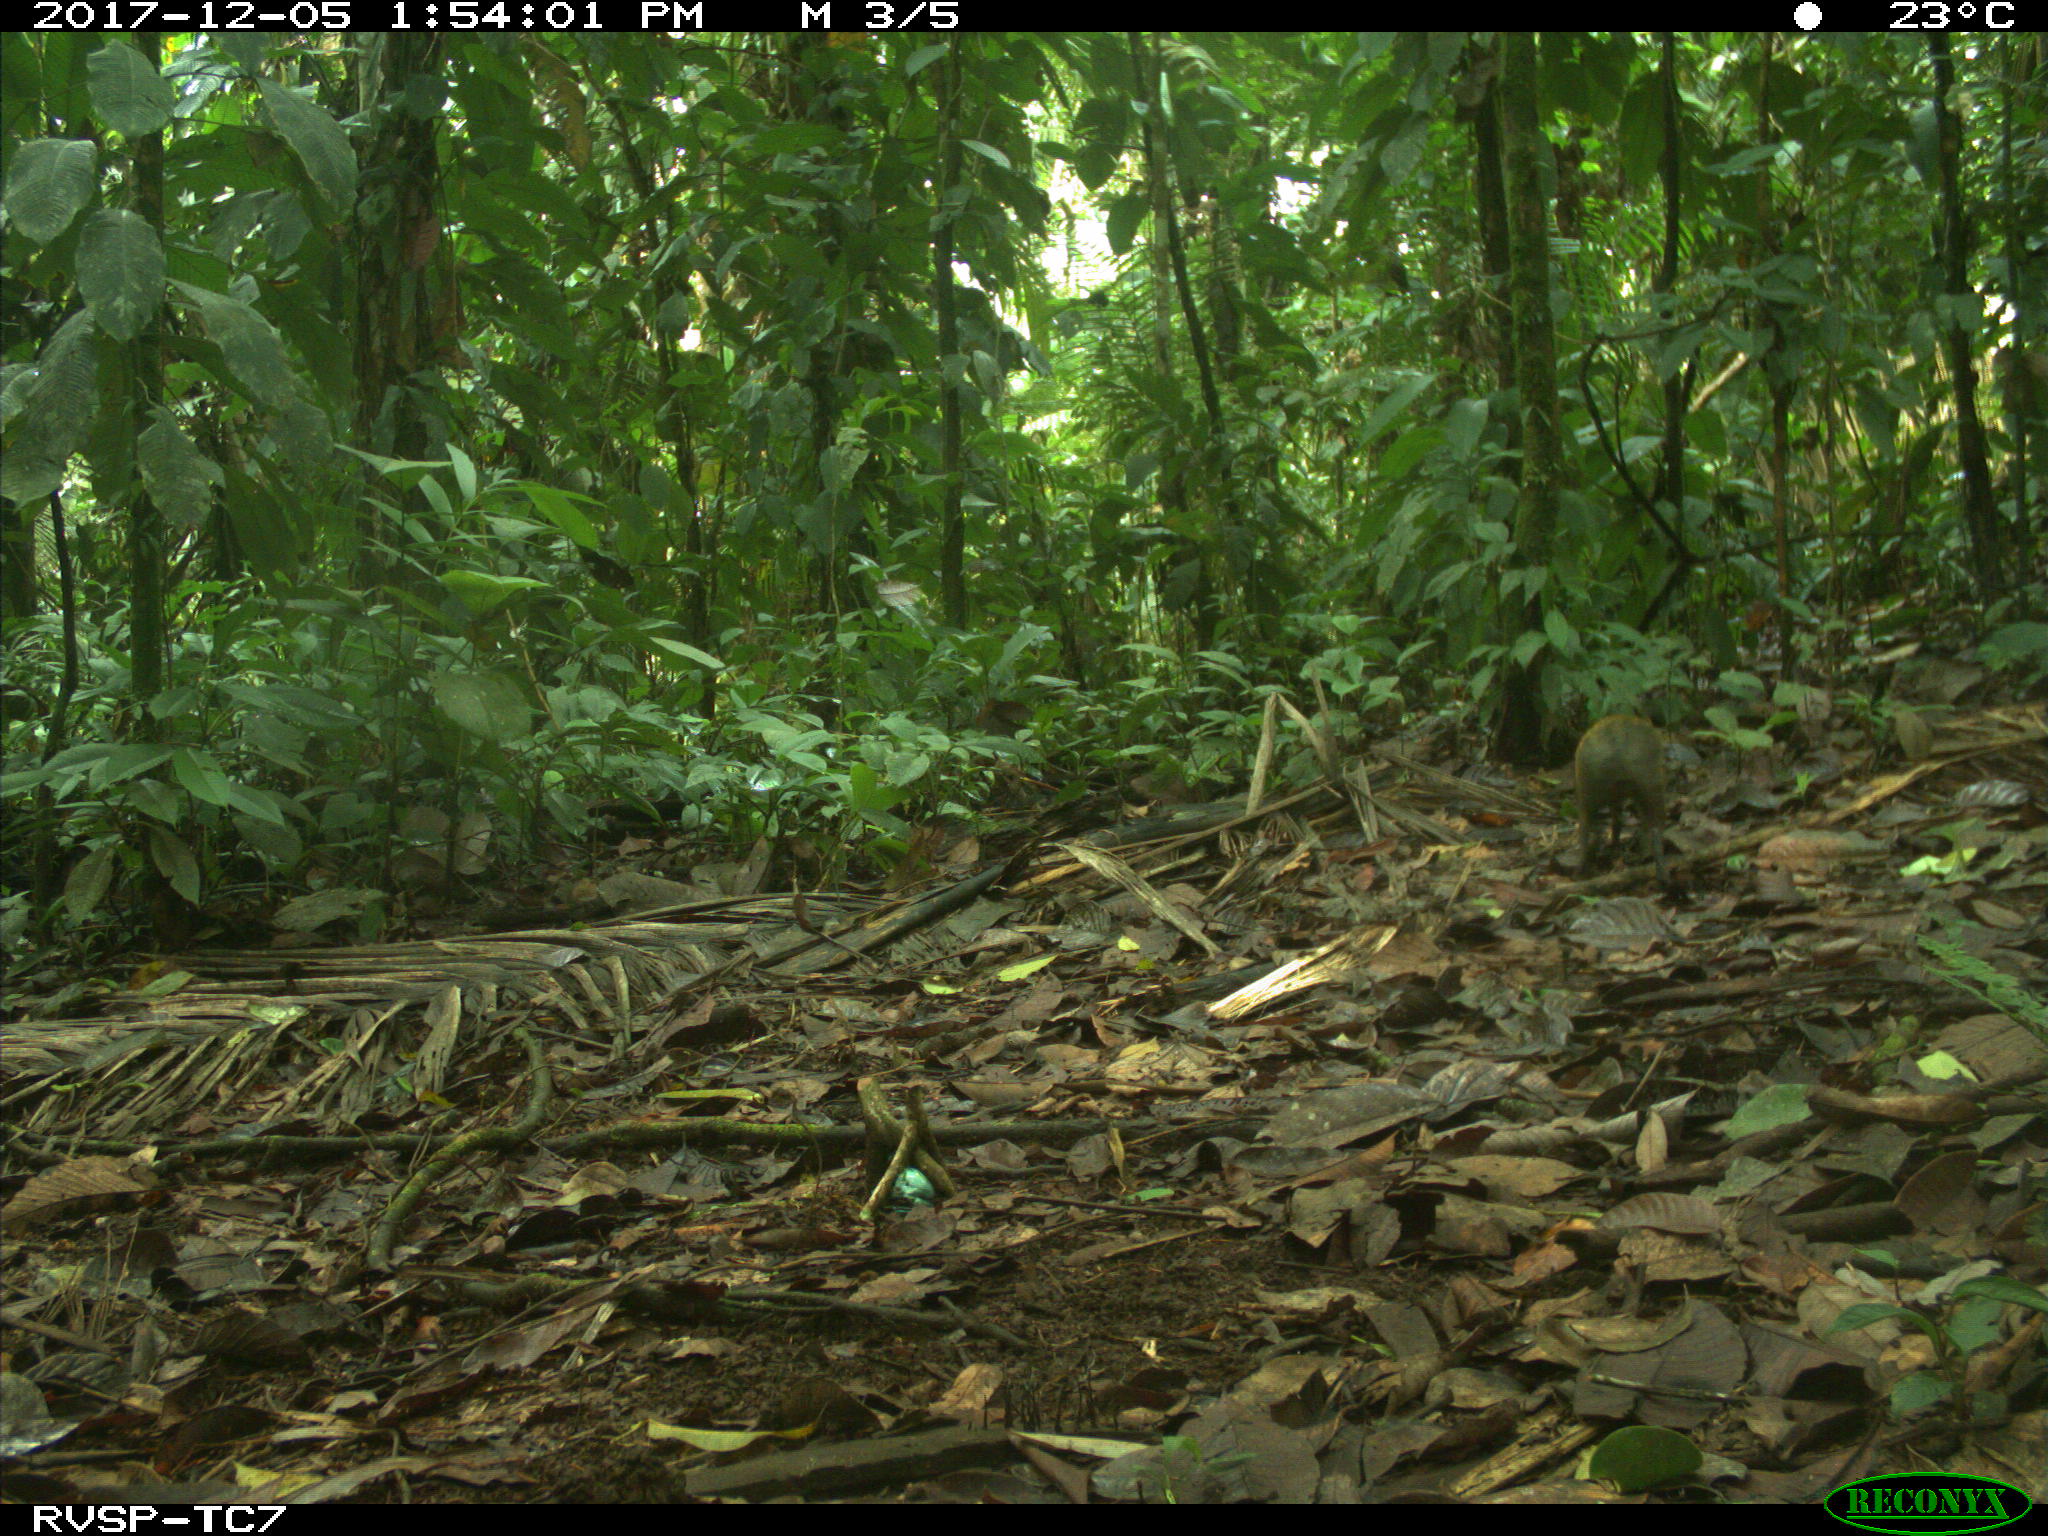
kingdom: Animalia
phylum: Chordata
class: Mammalia
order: Rodentia
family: Dasyproctidae
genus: Dasyprocta
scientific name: Dasyprocta punctata
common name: Central american agouti
